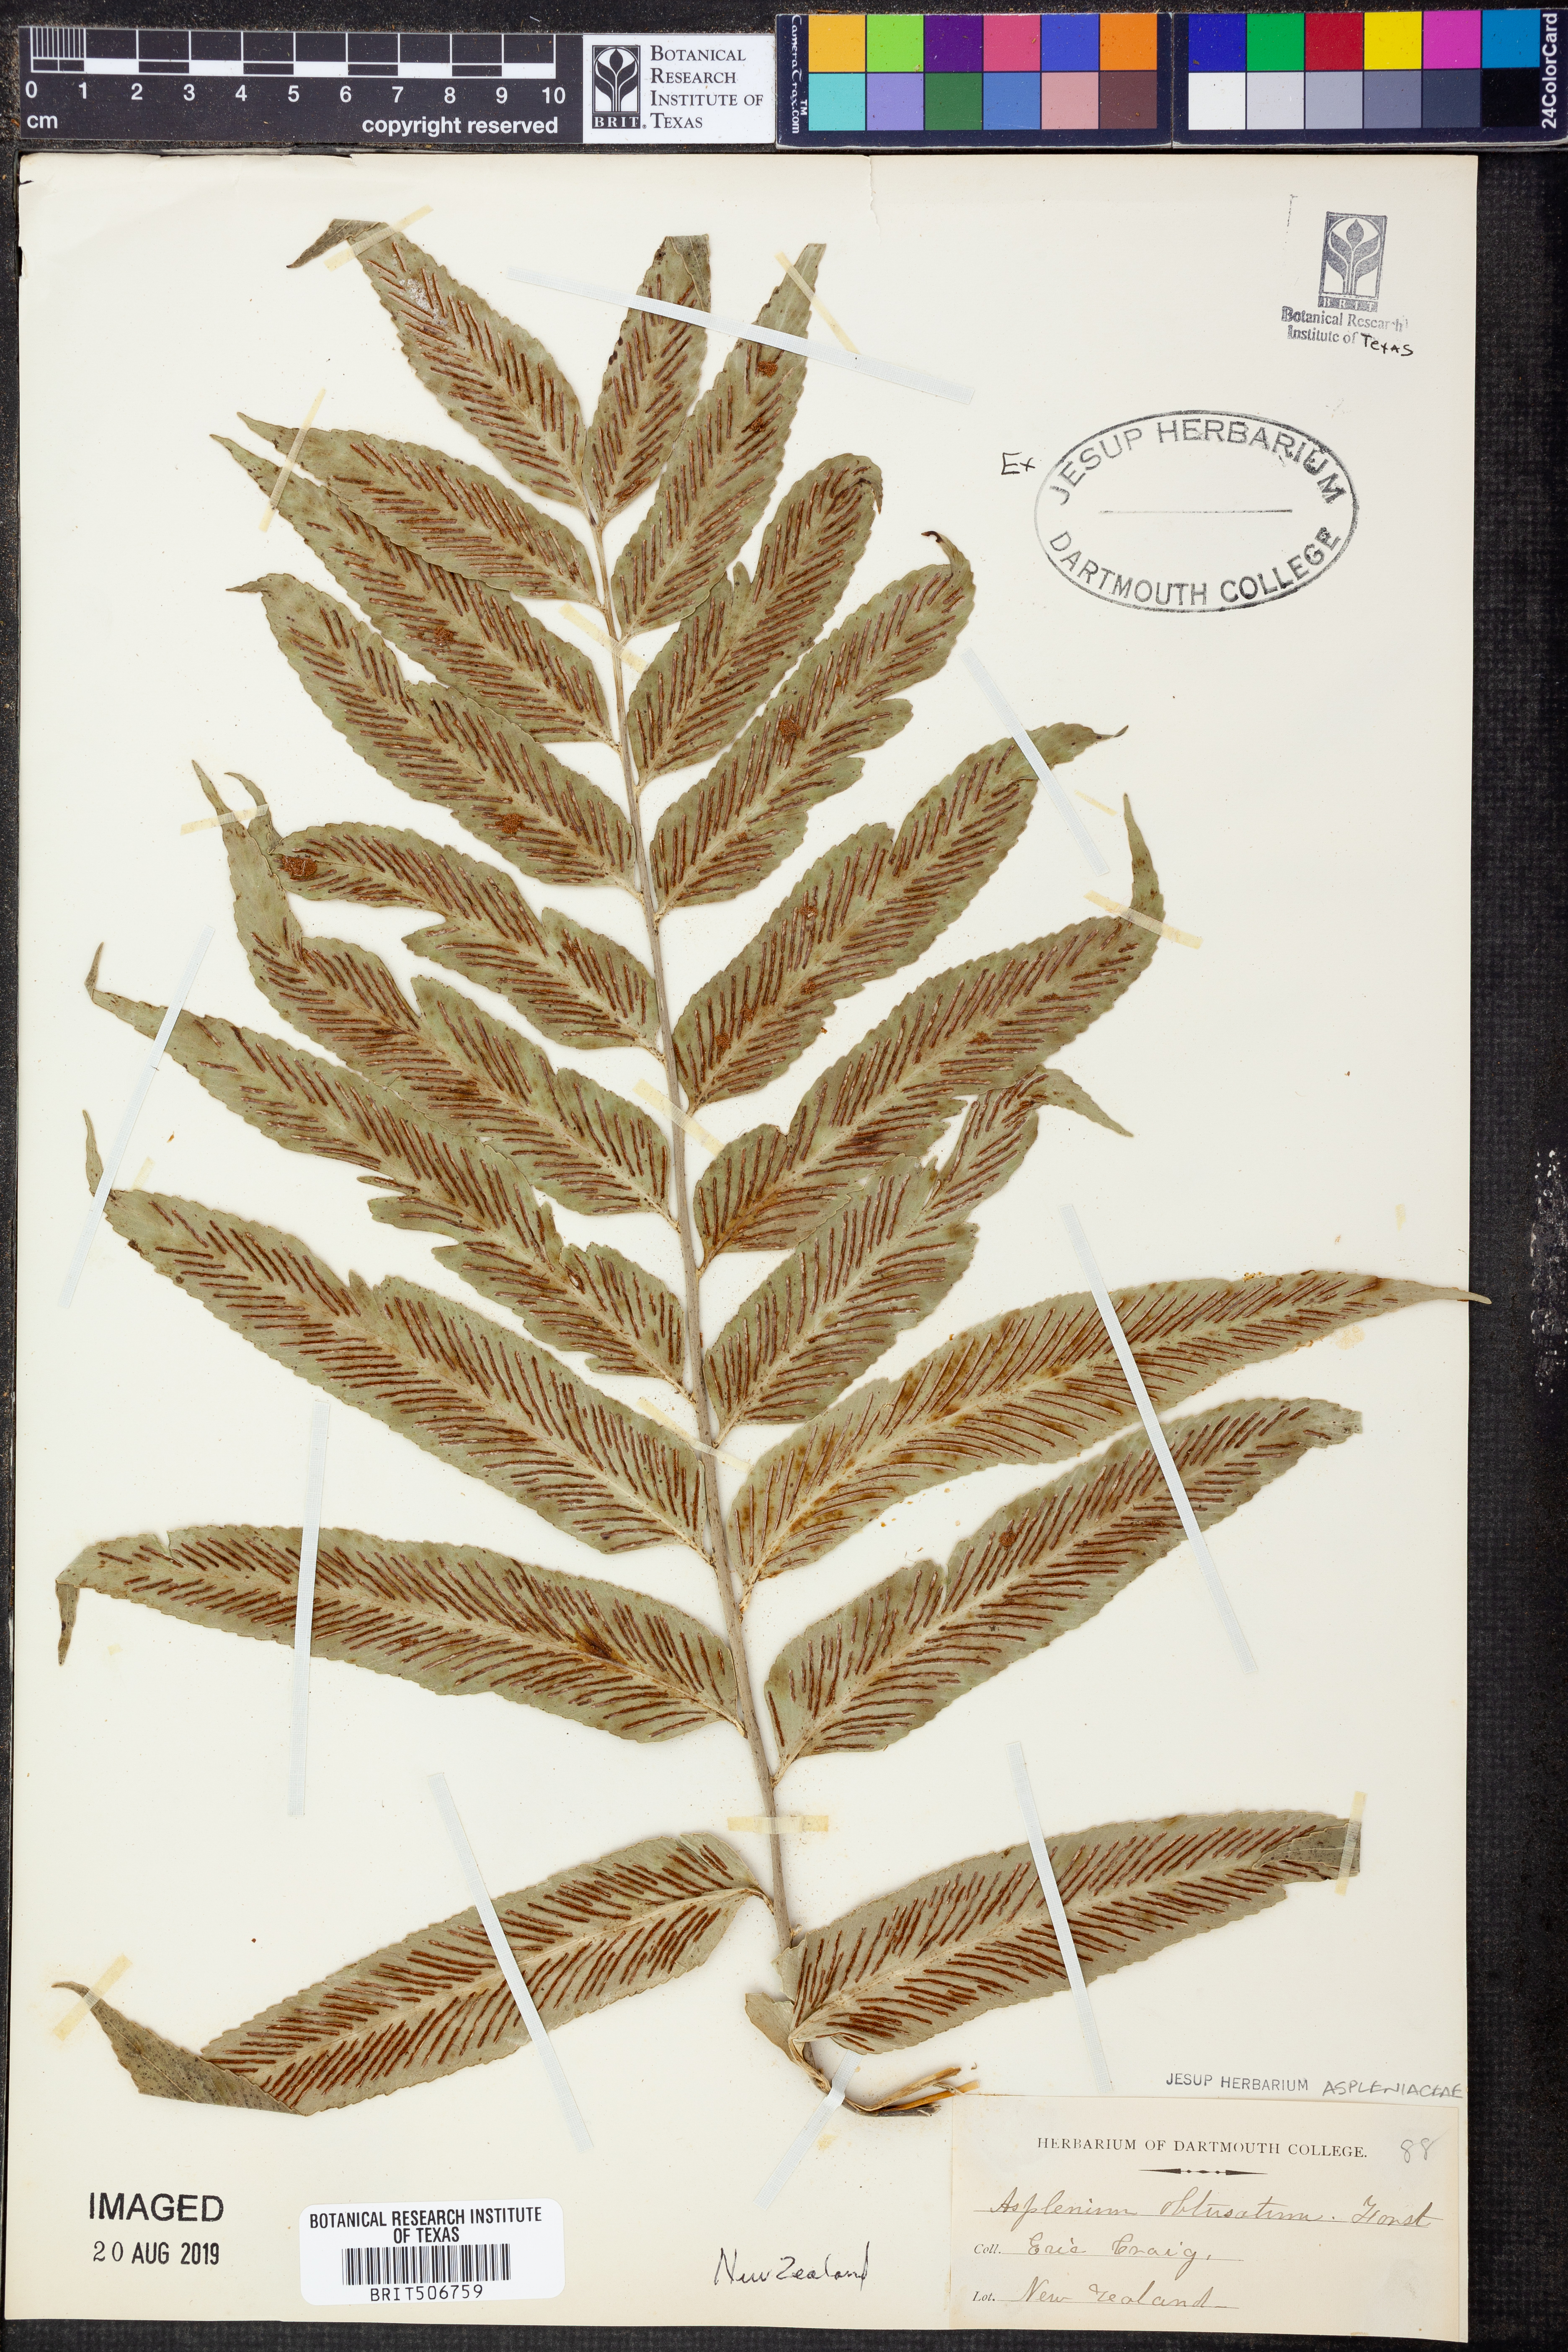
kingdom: Plantae
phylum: Tracheophyta
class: Polypodiopsida
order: Polypodiales
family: Aspleniaceae
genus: Asplenium
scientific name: Asplenium obtusatum
